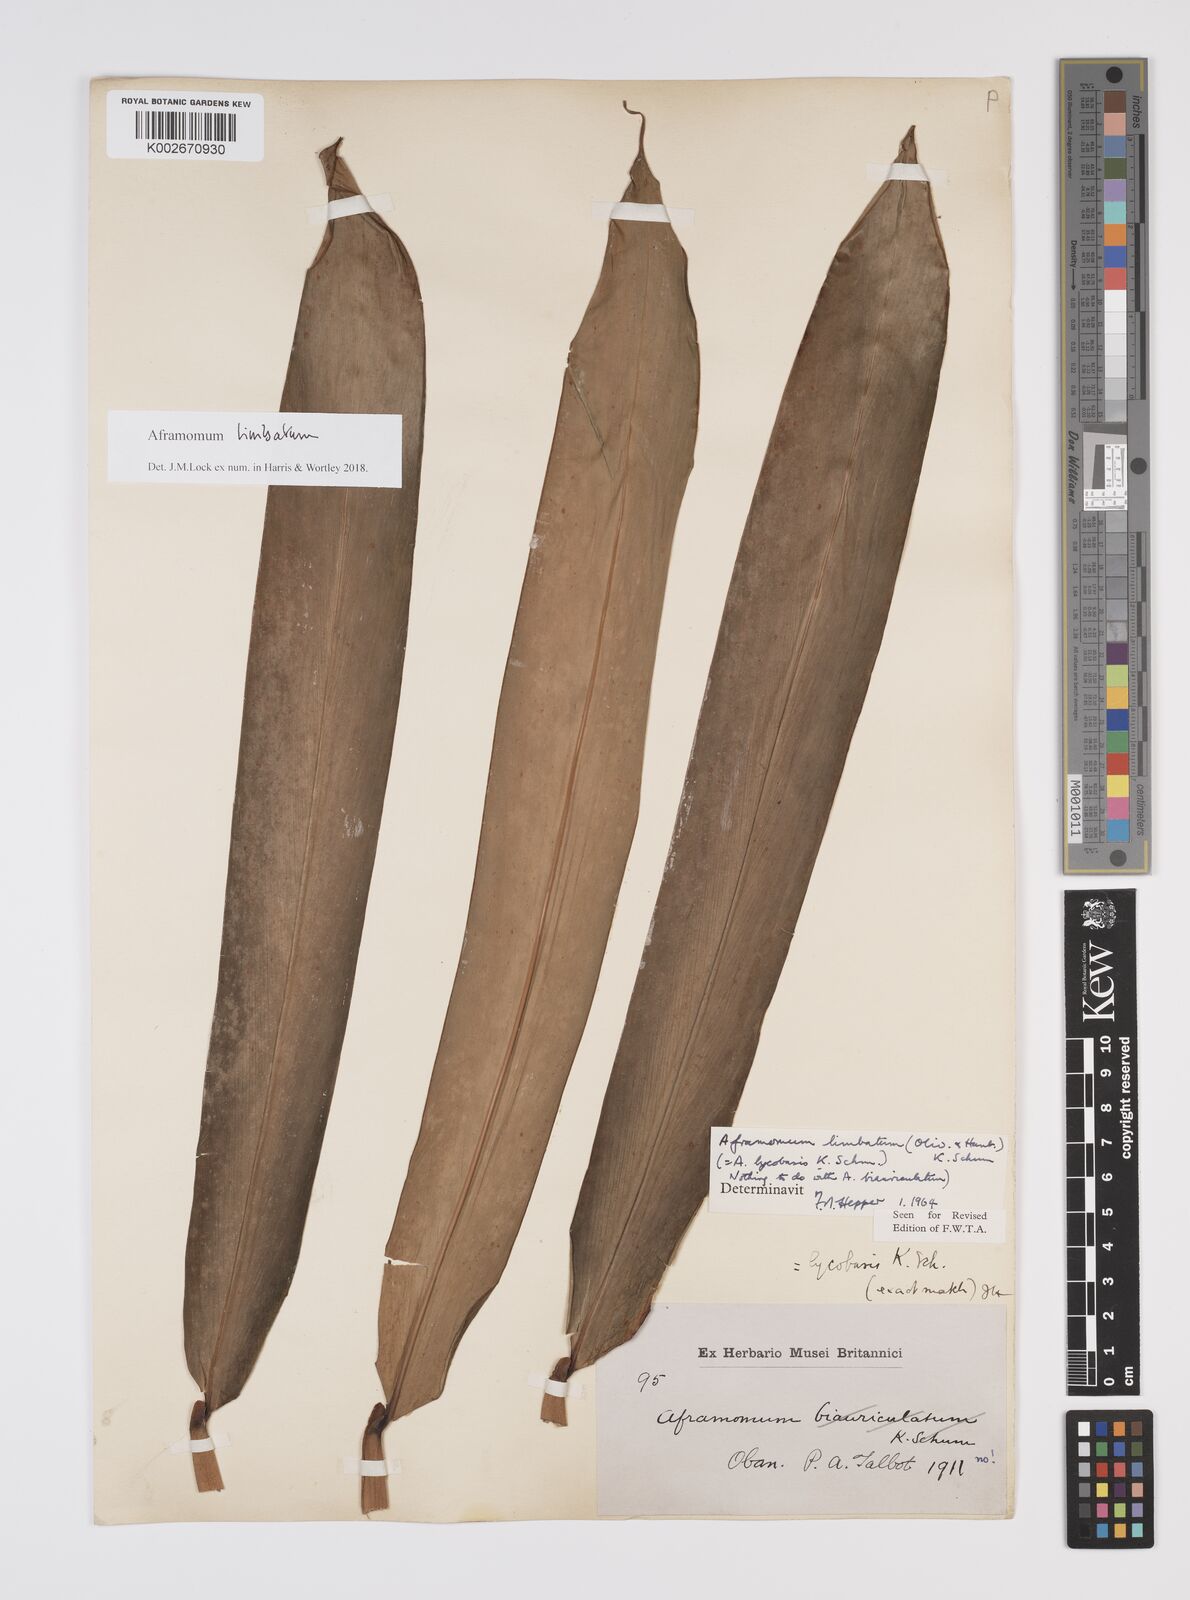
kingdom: Plantae
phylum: Tracheophyta
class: Liliopsida
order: Zingiberales
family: Zingiberaceae
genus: Aframomum
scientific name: Aframomum limbatum
